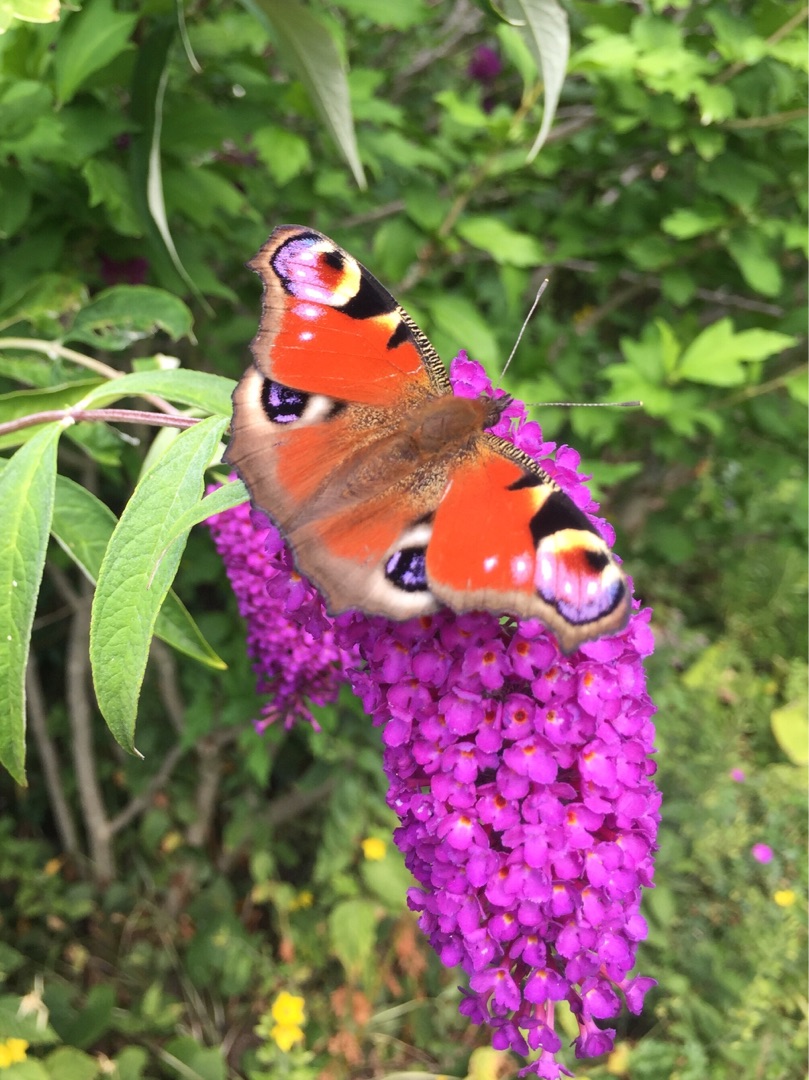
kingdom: Animalia
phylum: Arthropoda
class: Insecta
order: Lepidoptera
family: Nymphalidae
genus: Aglais
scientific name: Aglais io
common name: Dagpåfugleøje
